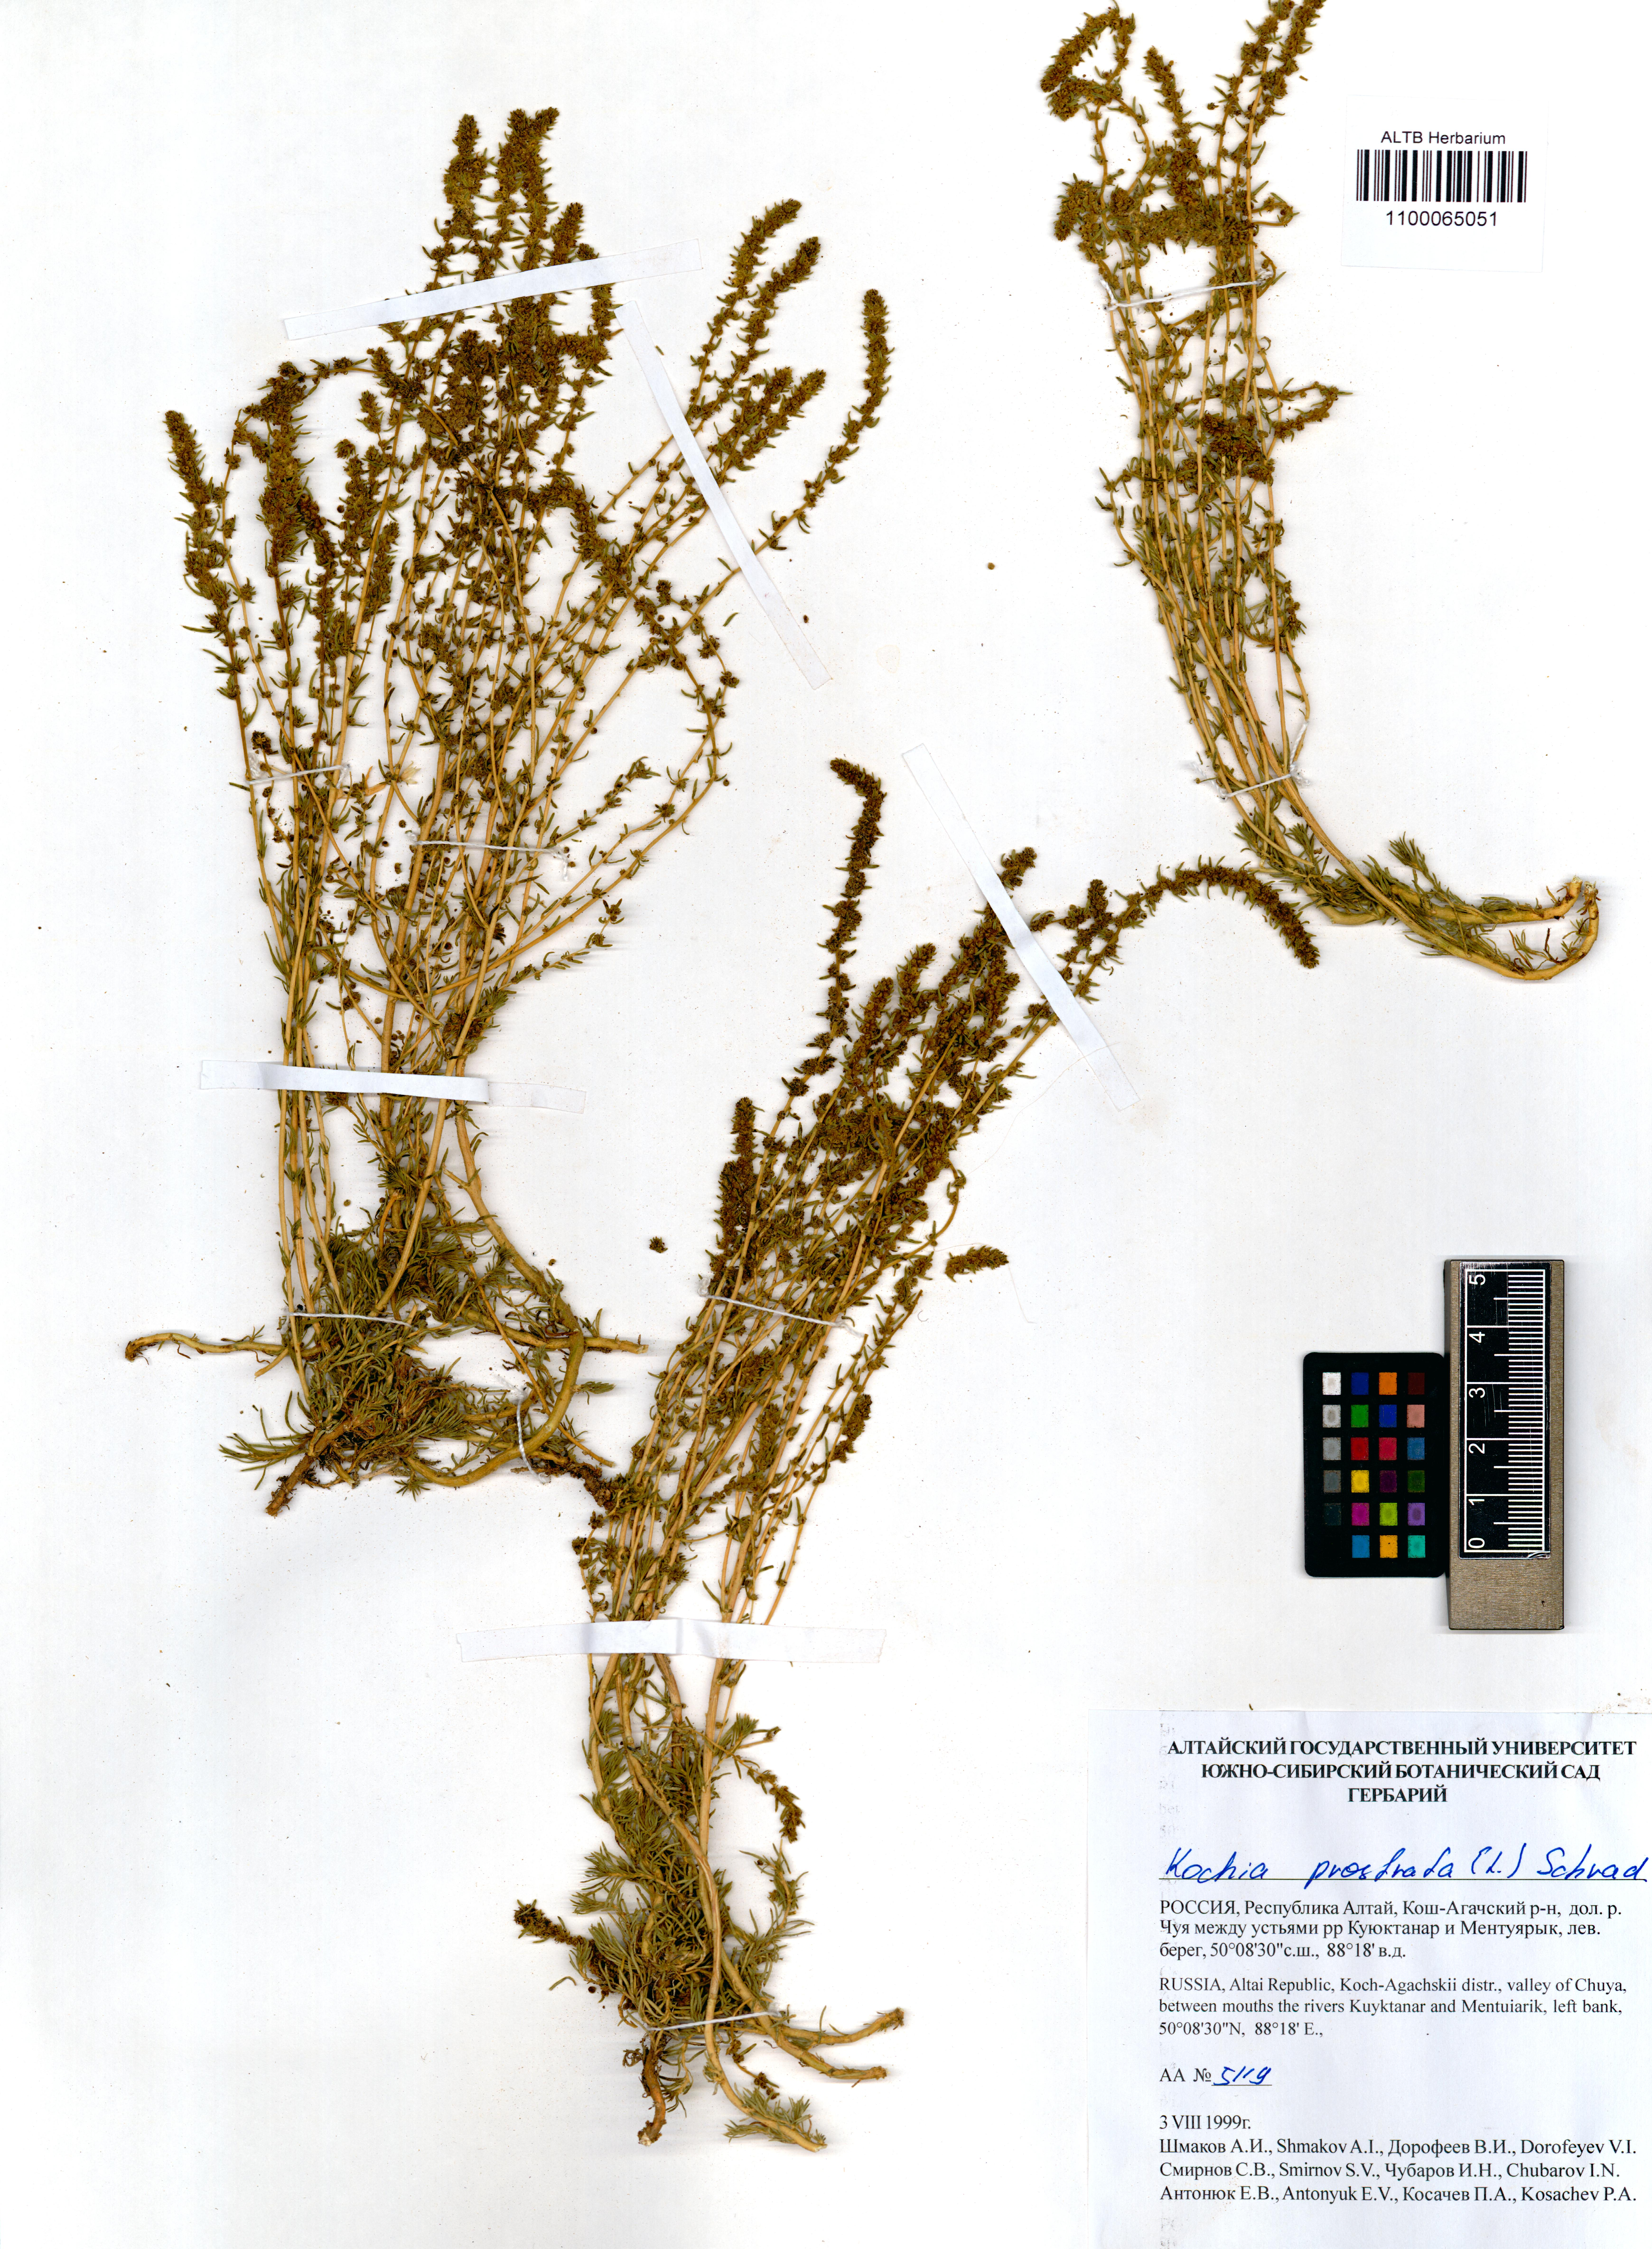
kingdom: Plantae
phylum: Tracheophyta
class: Magnoliopsida
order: Caryophyllales
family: Amaranthaceae
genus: Bassia
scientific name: Bassia prostrata
